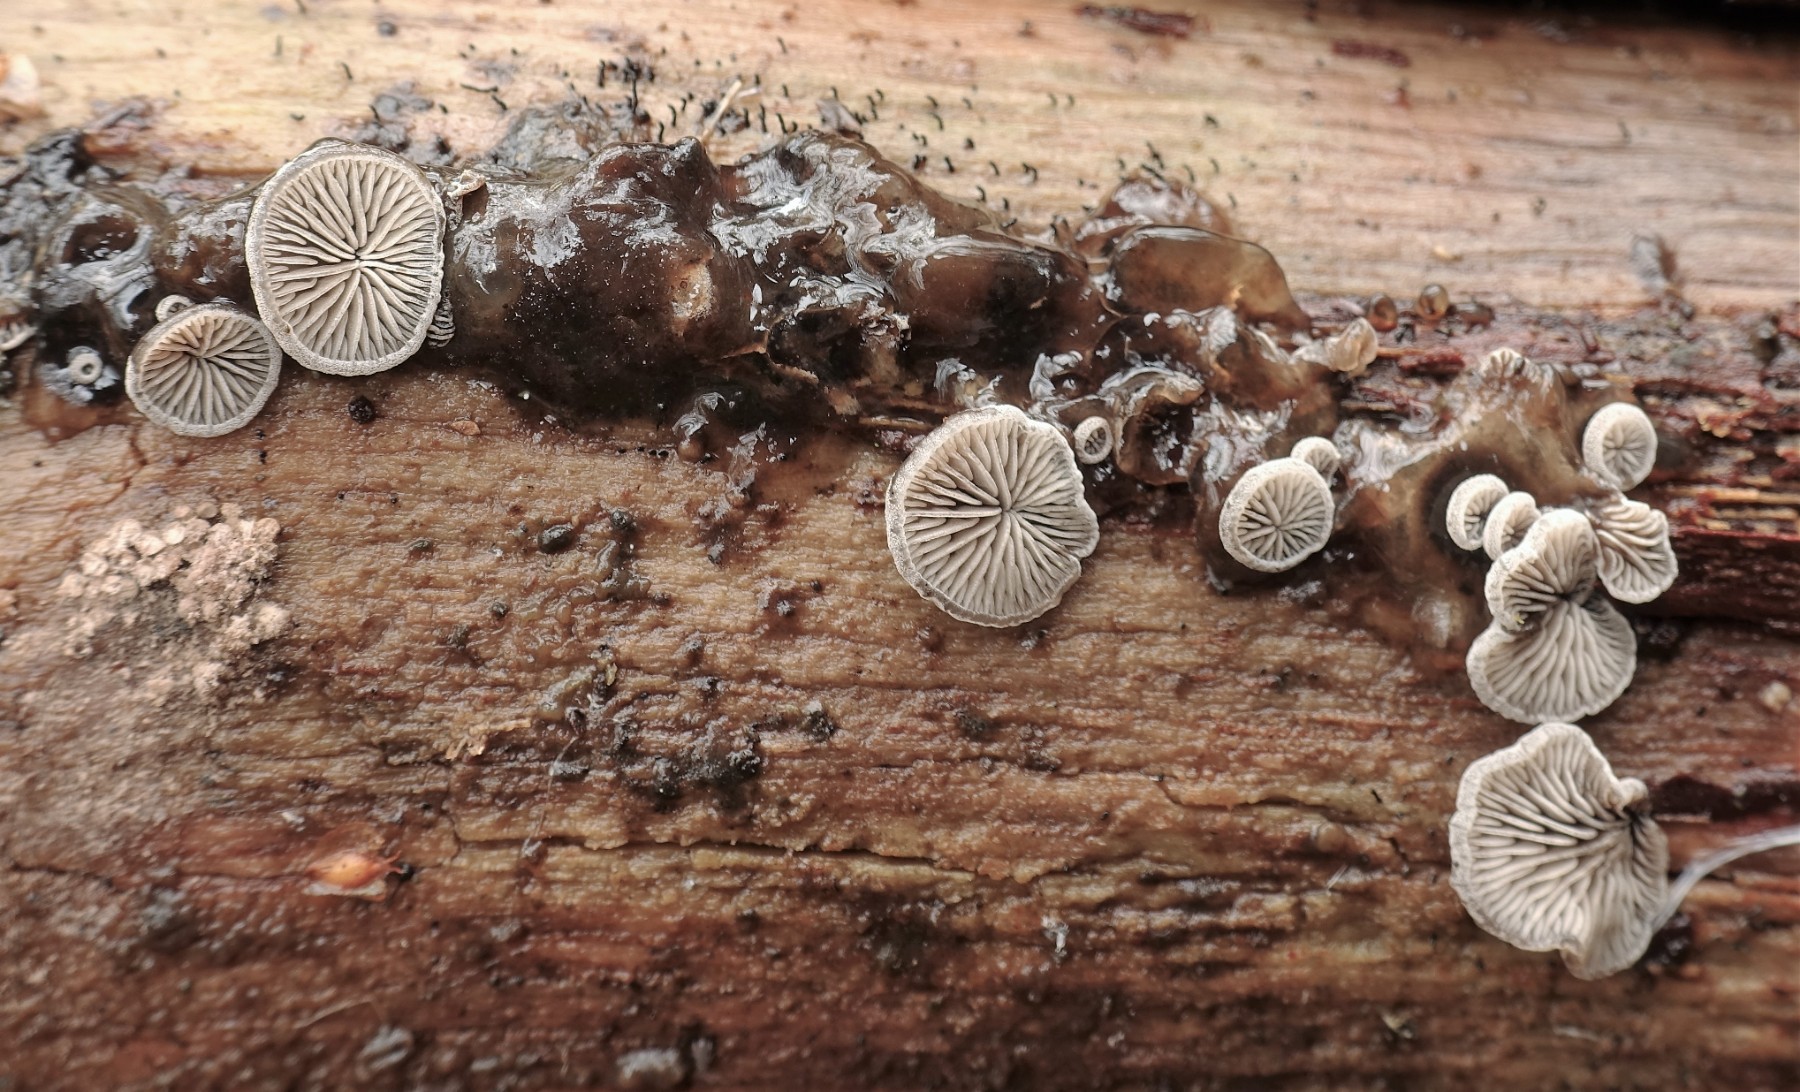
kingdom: Fungi
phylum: Basidiomycota
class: Agaricomycetes
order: Agaricales
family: Pleurotaceae
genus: Resupinatus
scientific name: Resupinatus applicatus
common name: lysfiltet barkhat
